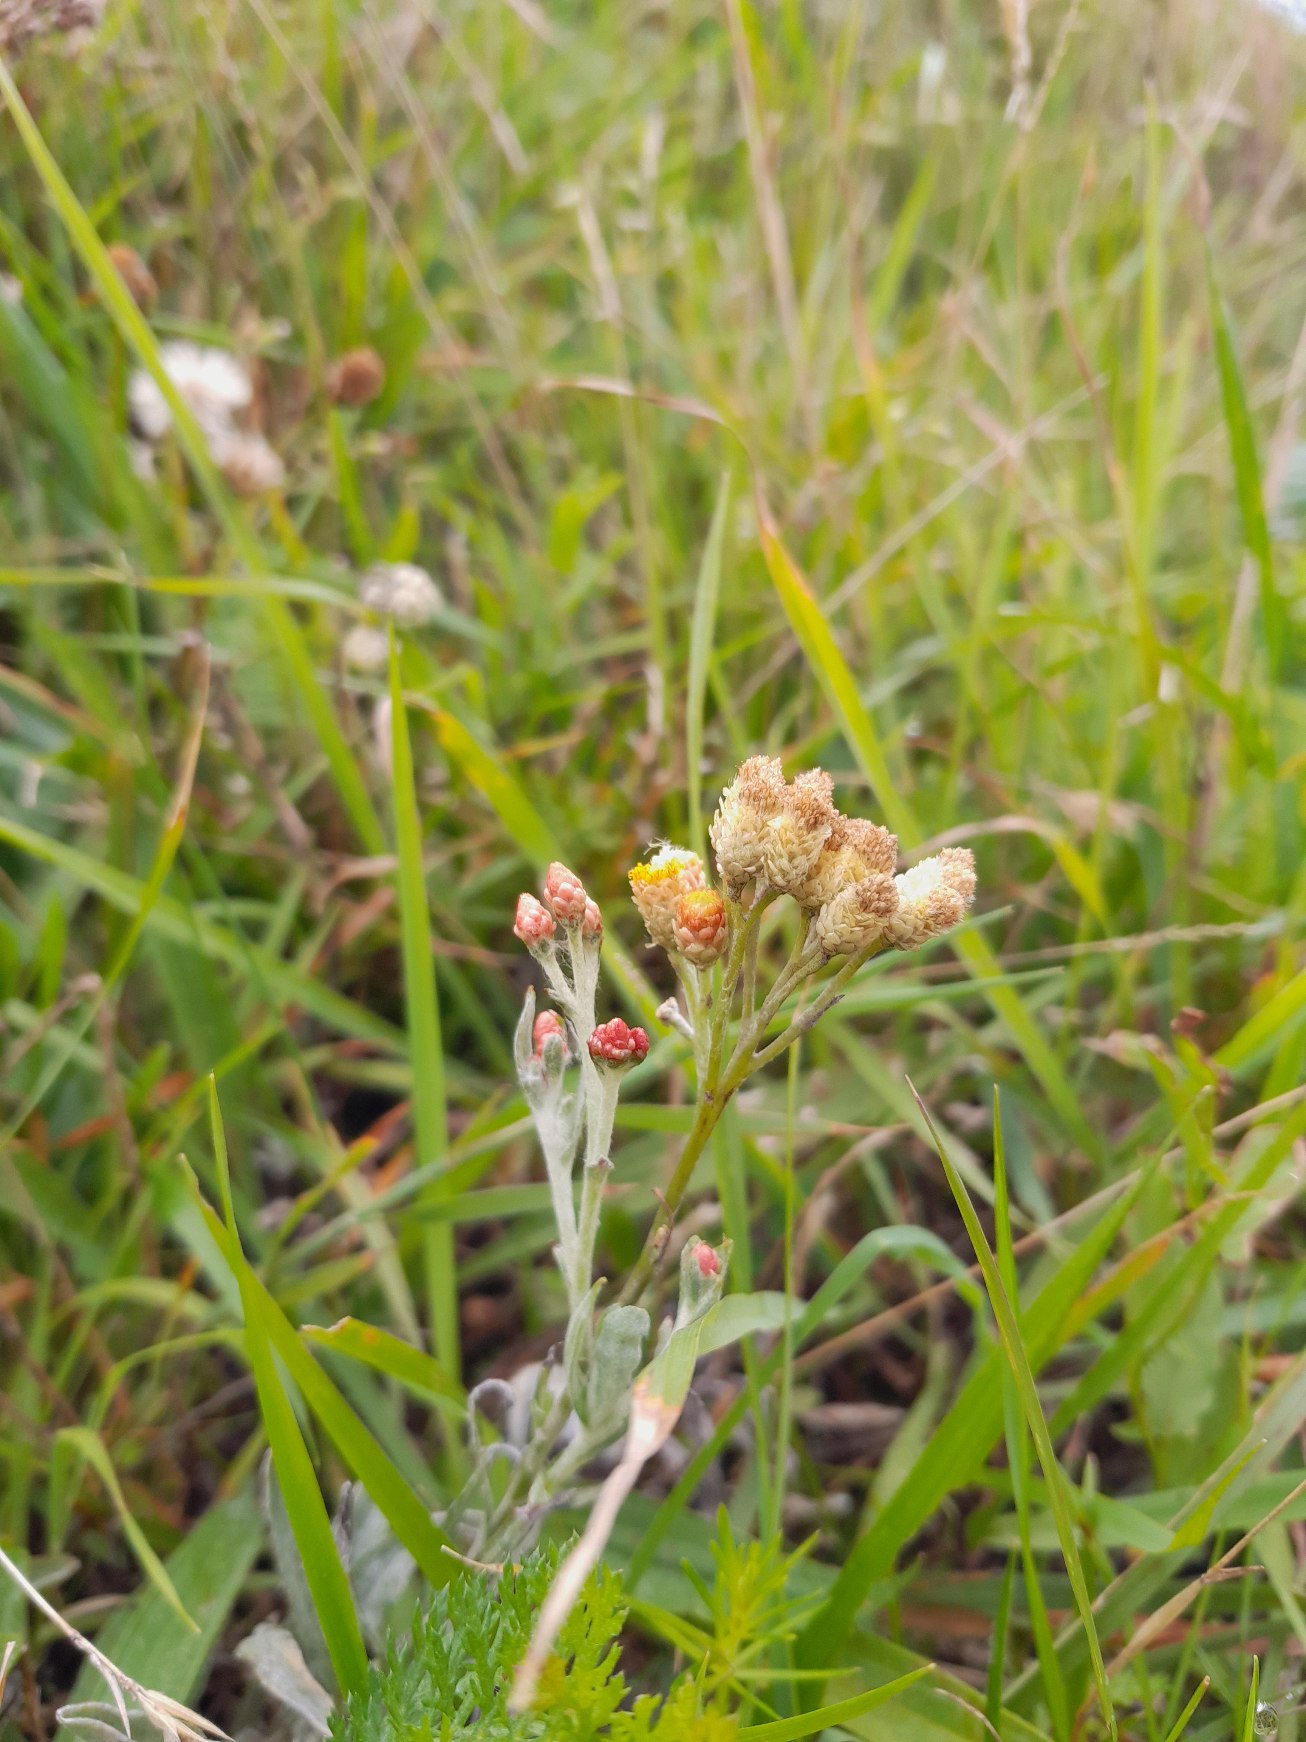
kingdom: Plantae
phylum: Tracheophyta
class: Magnoliopsida
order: Asterales
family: Asteraceae
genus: Helichrysum
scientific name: Helichrysum arenarium
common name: Gul evighedsblomst
